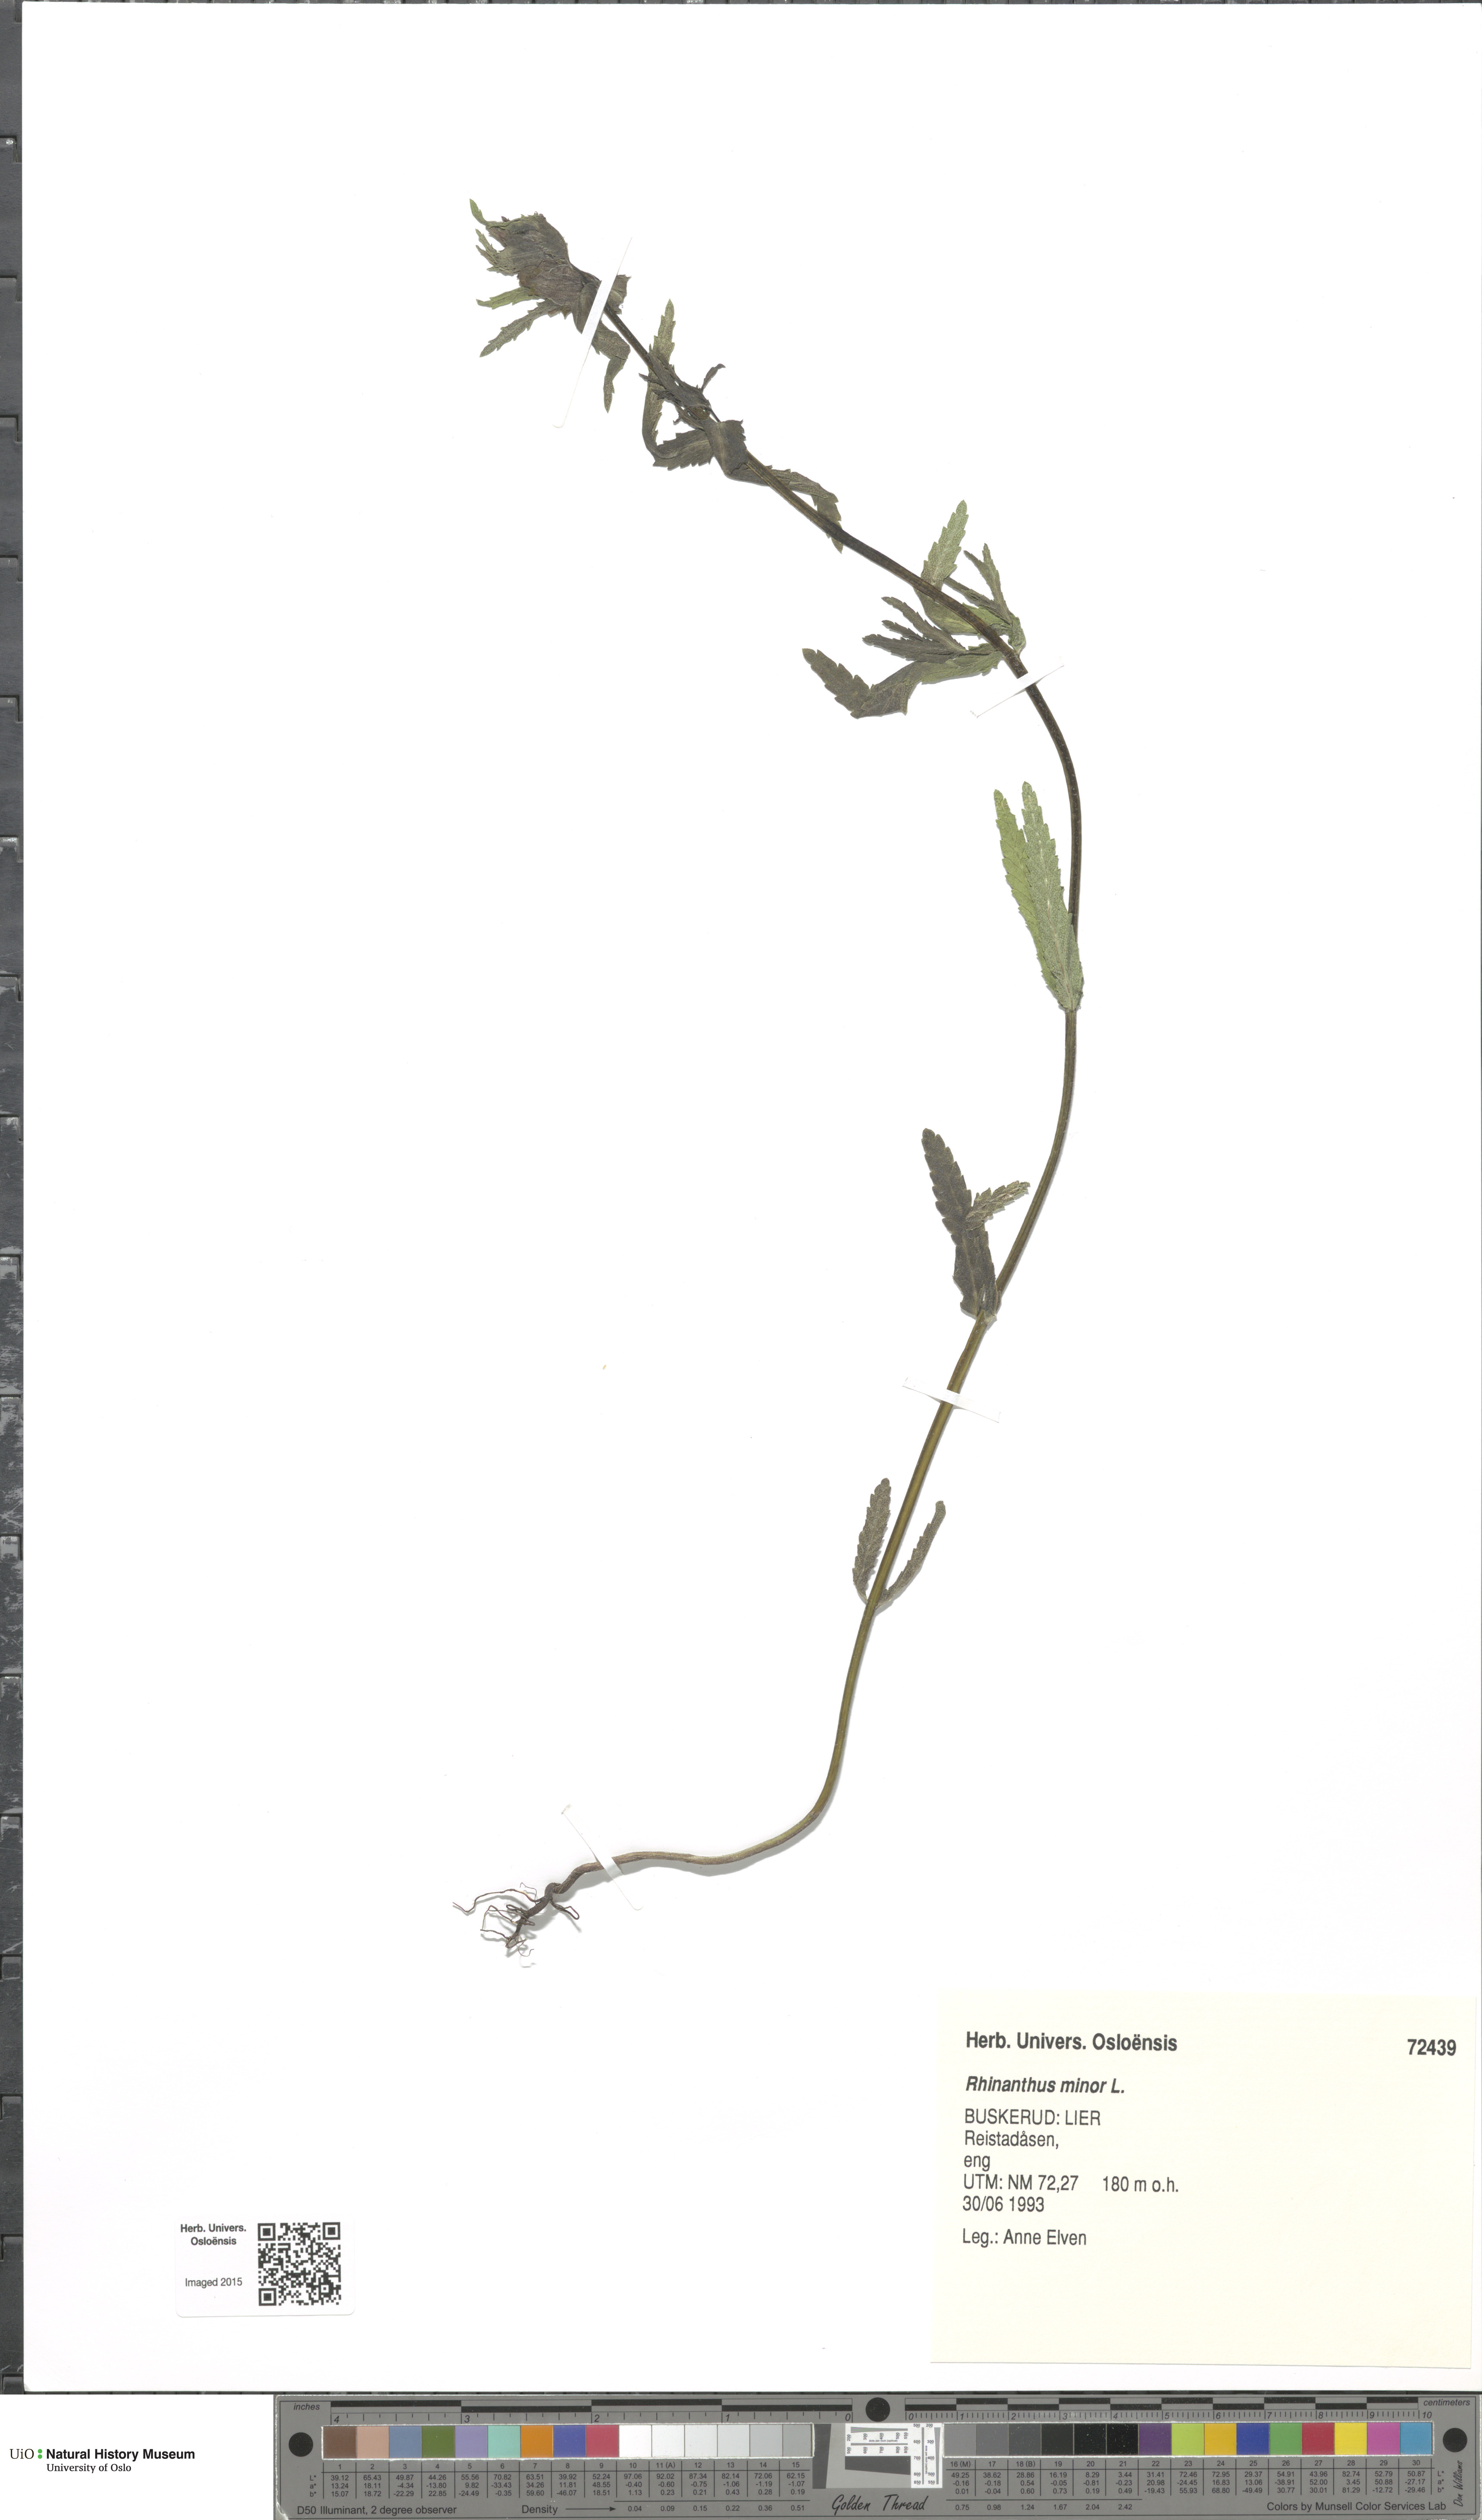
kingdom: Plantae
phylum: Tracheophyta
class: Magnoliopsida
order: Lamiales
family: Orobanchaceae
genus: Rhinanthus
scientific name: Rhinanthus minor
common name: Yellow-rattle
